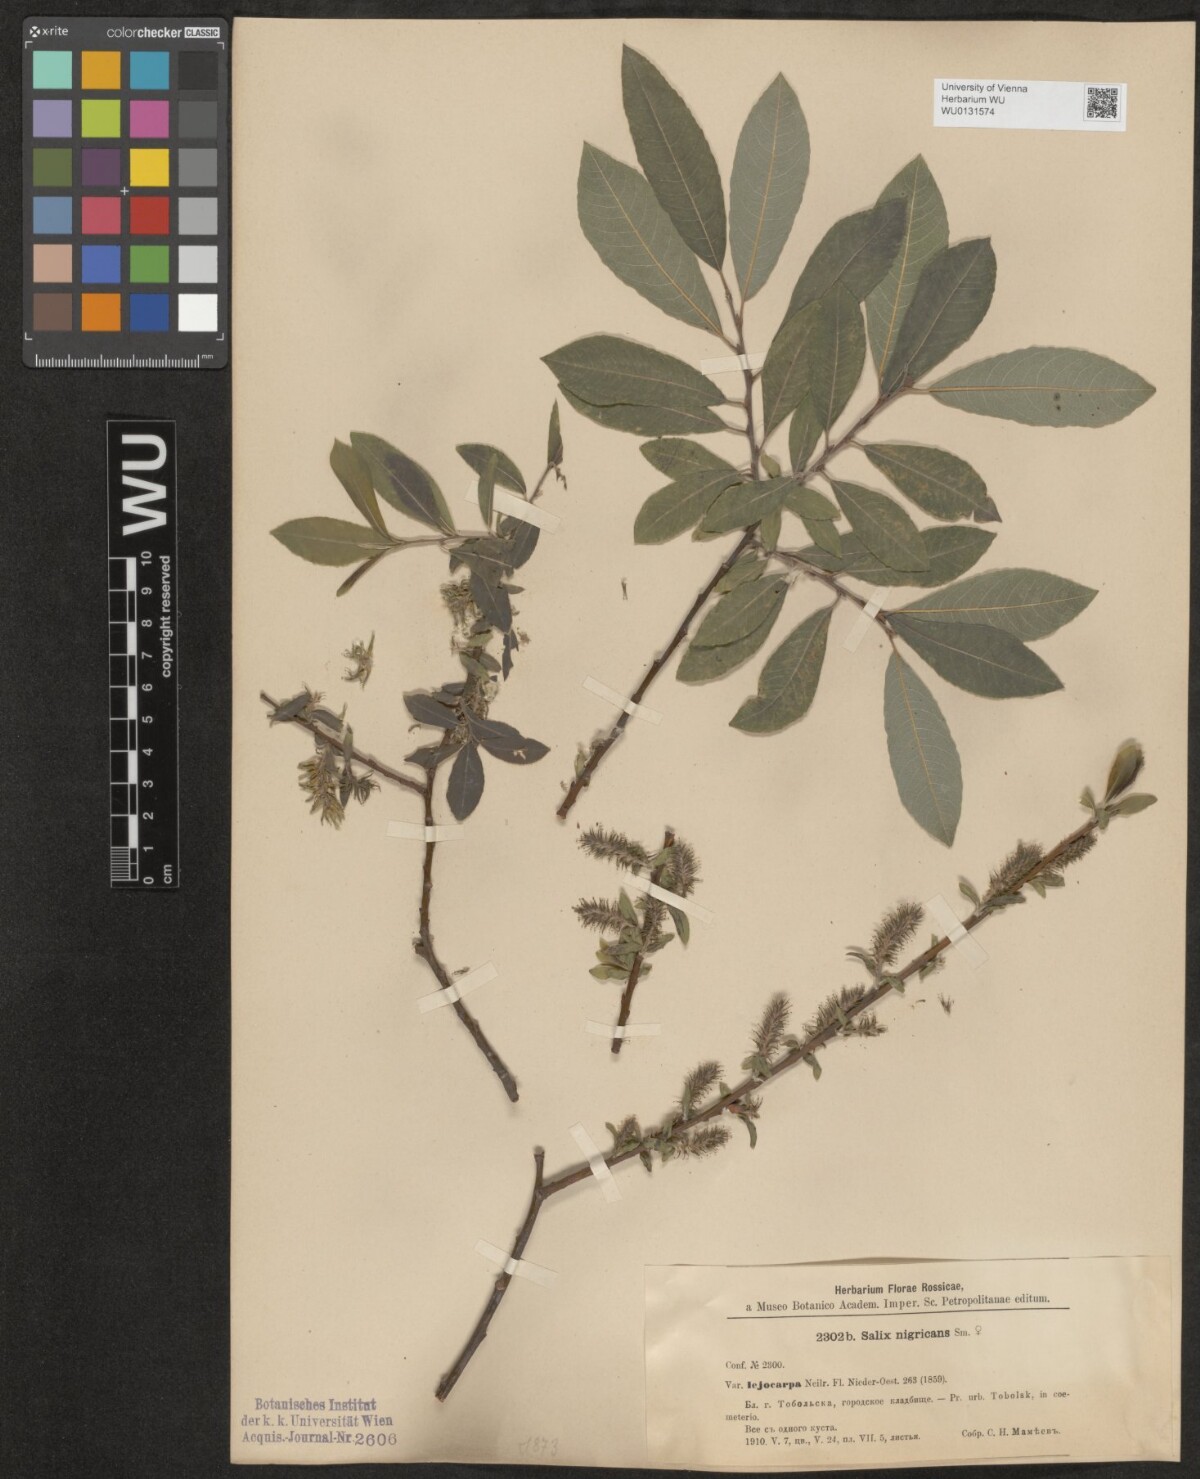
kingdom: Plantae
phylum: Tracheophyta
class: Magnoliopsida
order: Malpighiales
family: Salicaceae
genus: Salix
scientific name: Salix myrsinifolia
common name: Dark-leaved willow
